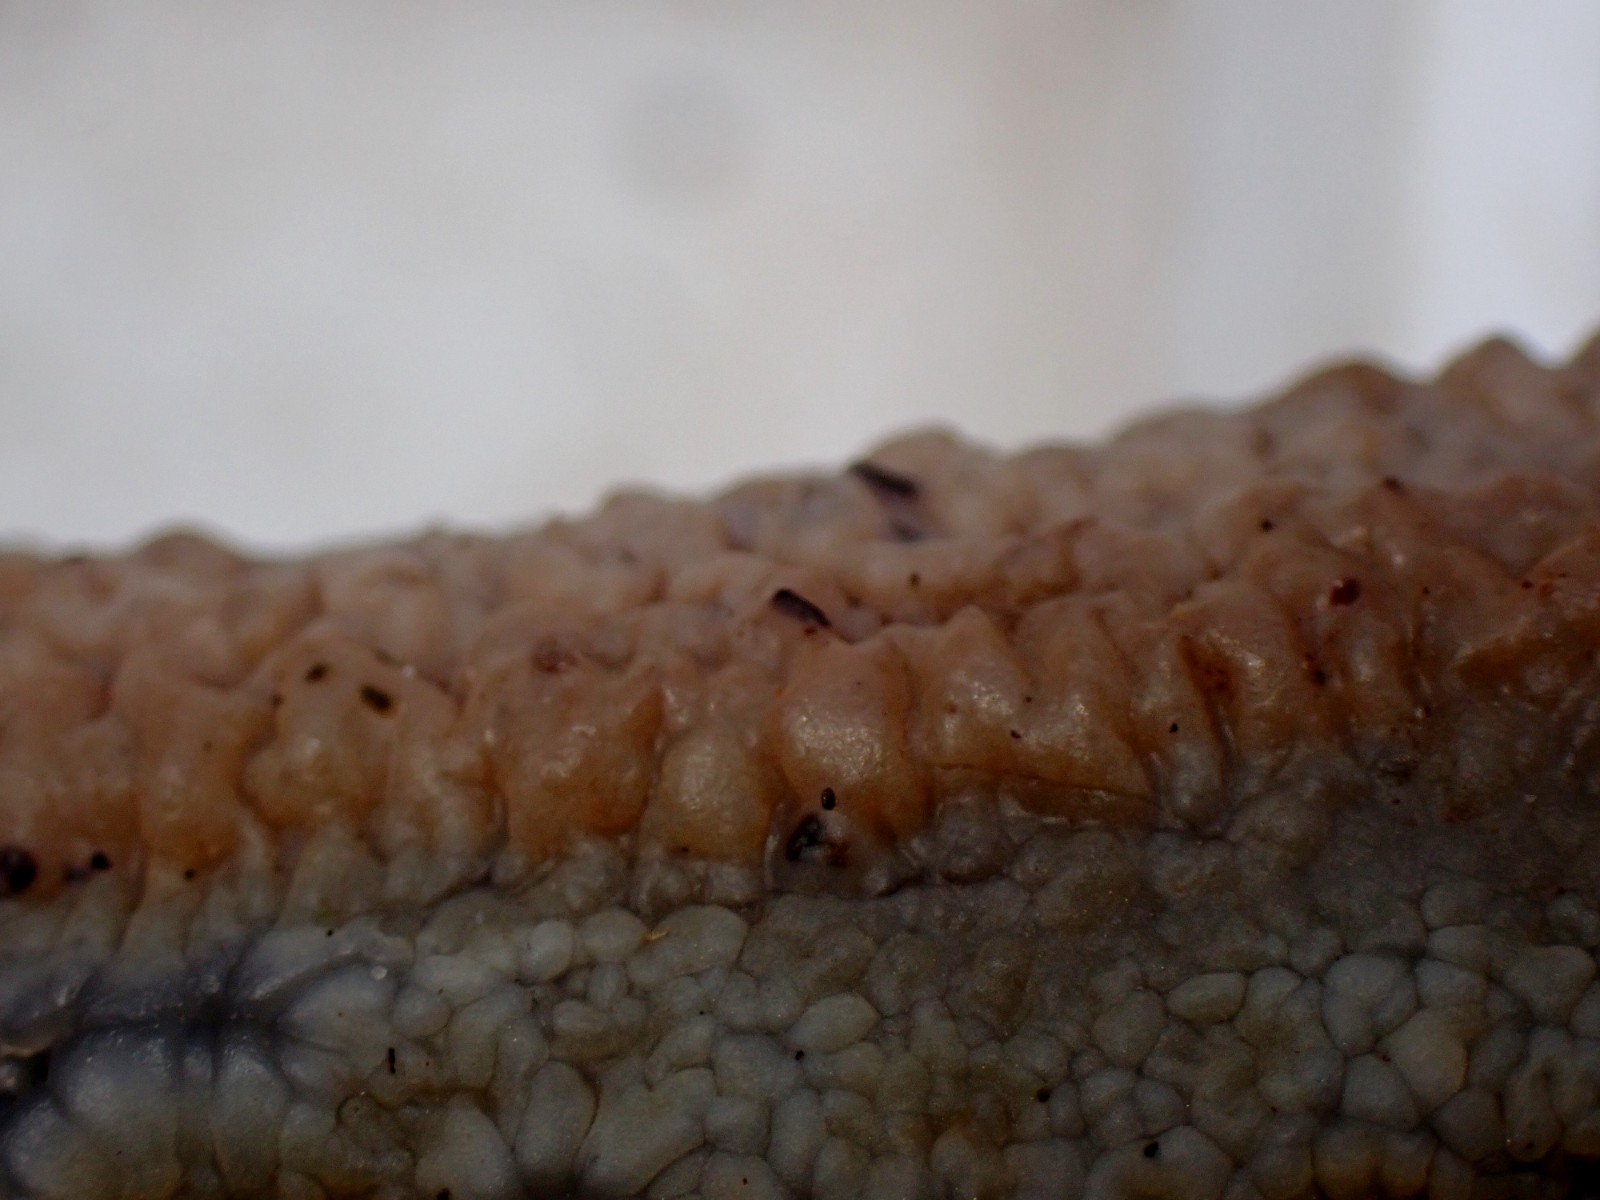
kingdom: Fungi
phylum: Basidiomycota
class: Agaricomycetes
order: Auriculariales
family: Auriculariaceae
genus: Exidia
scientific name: Exidia thuretiana
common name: hvidlig bævretop
